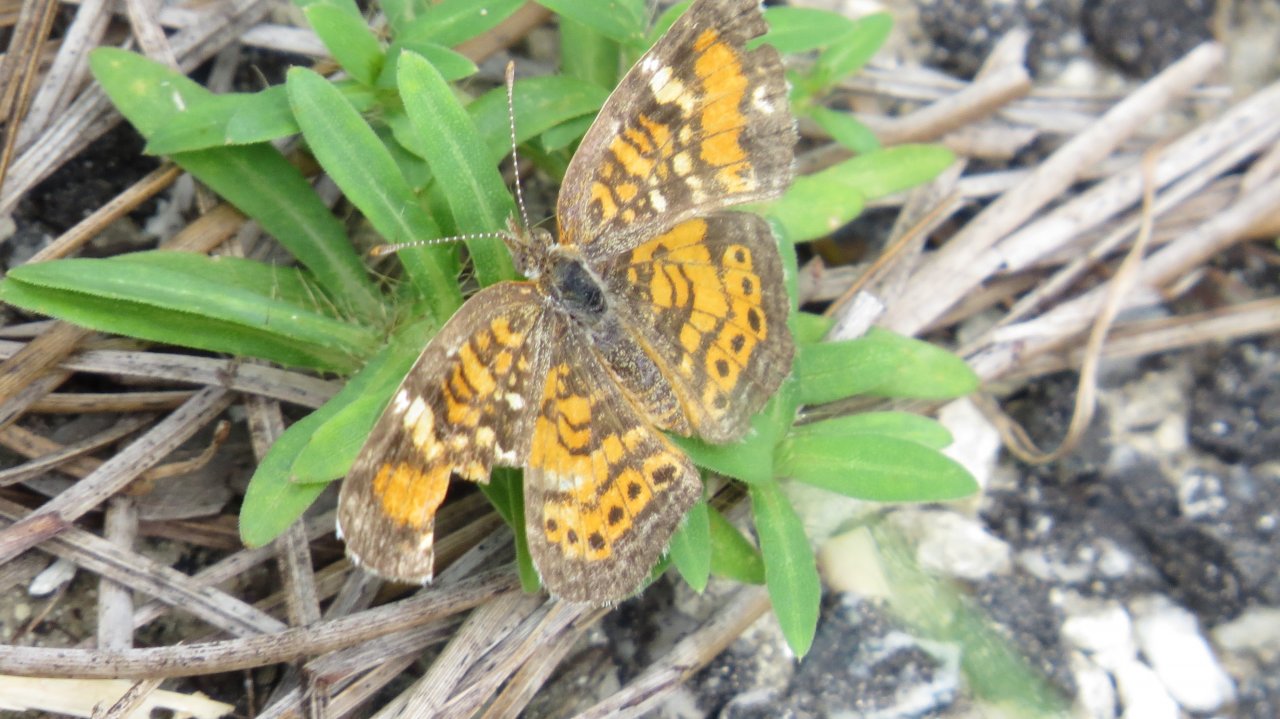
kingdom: Animalia
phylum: Arthropoda
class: Insecta
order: Lepidoptera
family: Nymphalidae
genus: Phyciodes
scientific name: Phyciodes phaon
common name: Phaon Crescent
